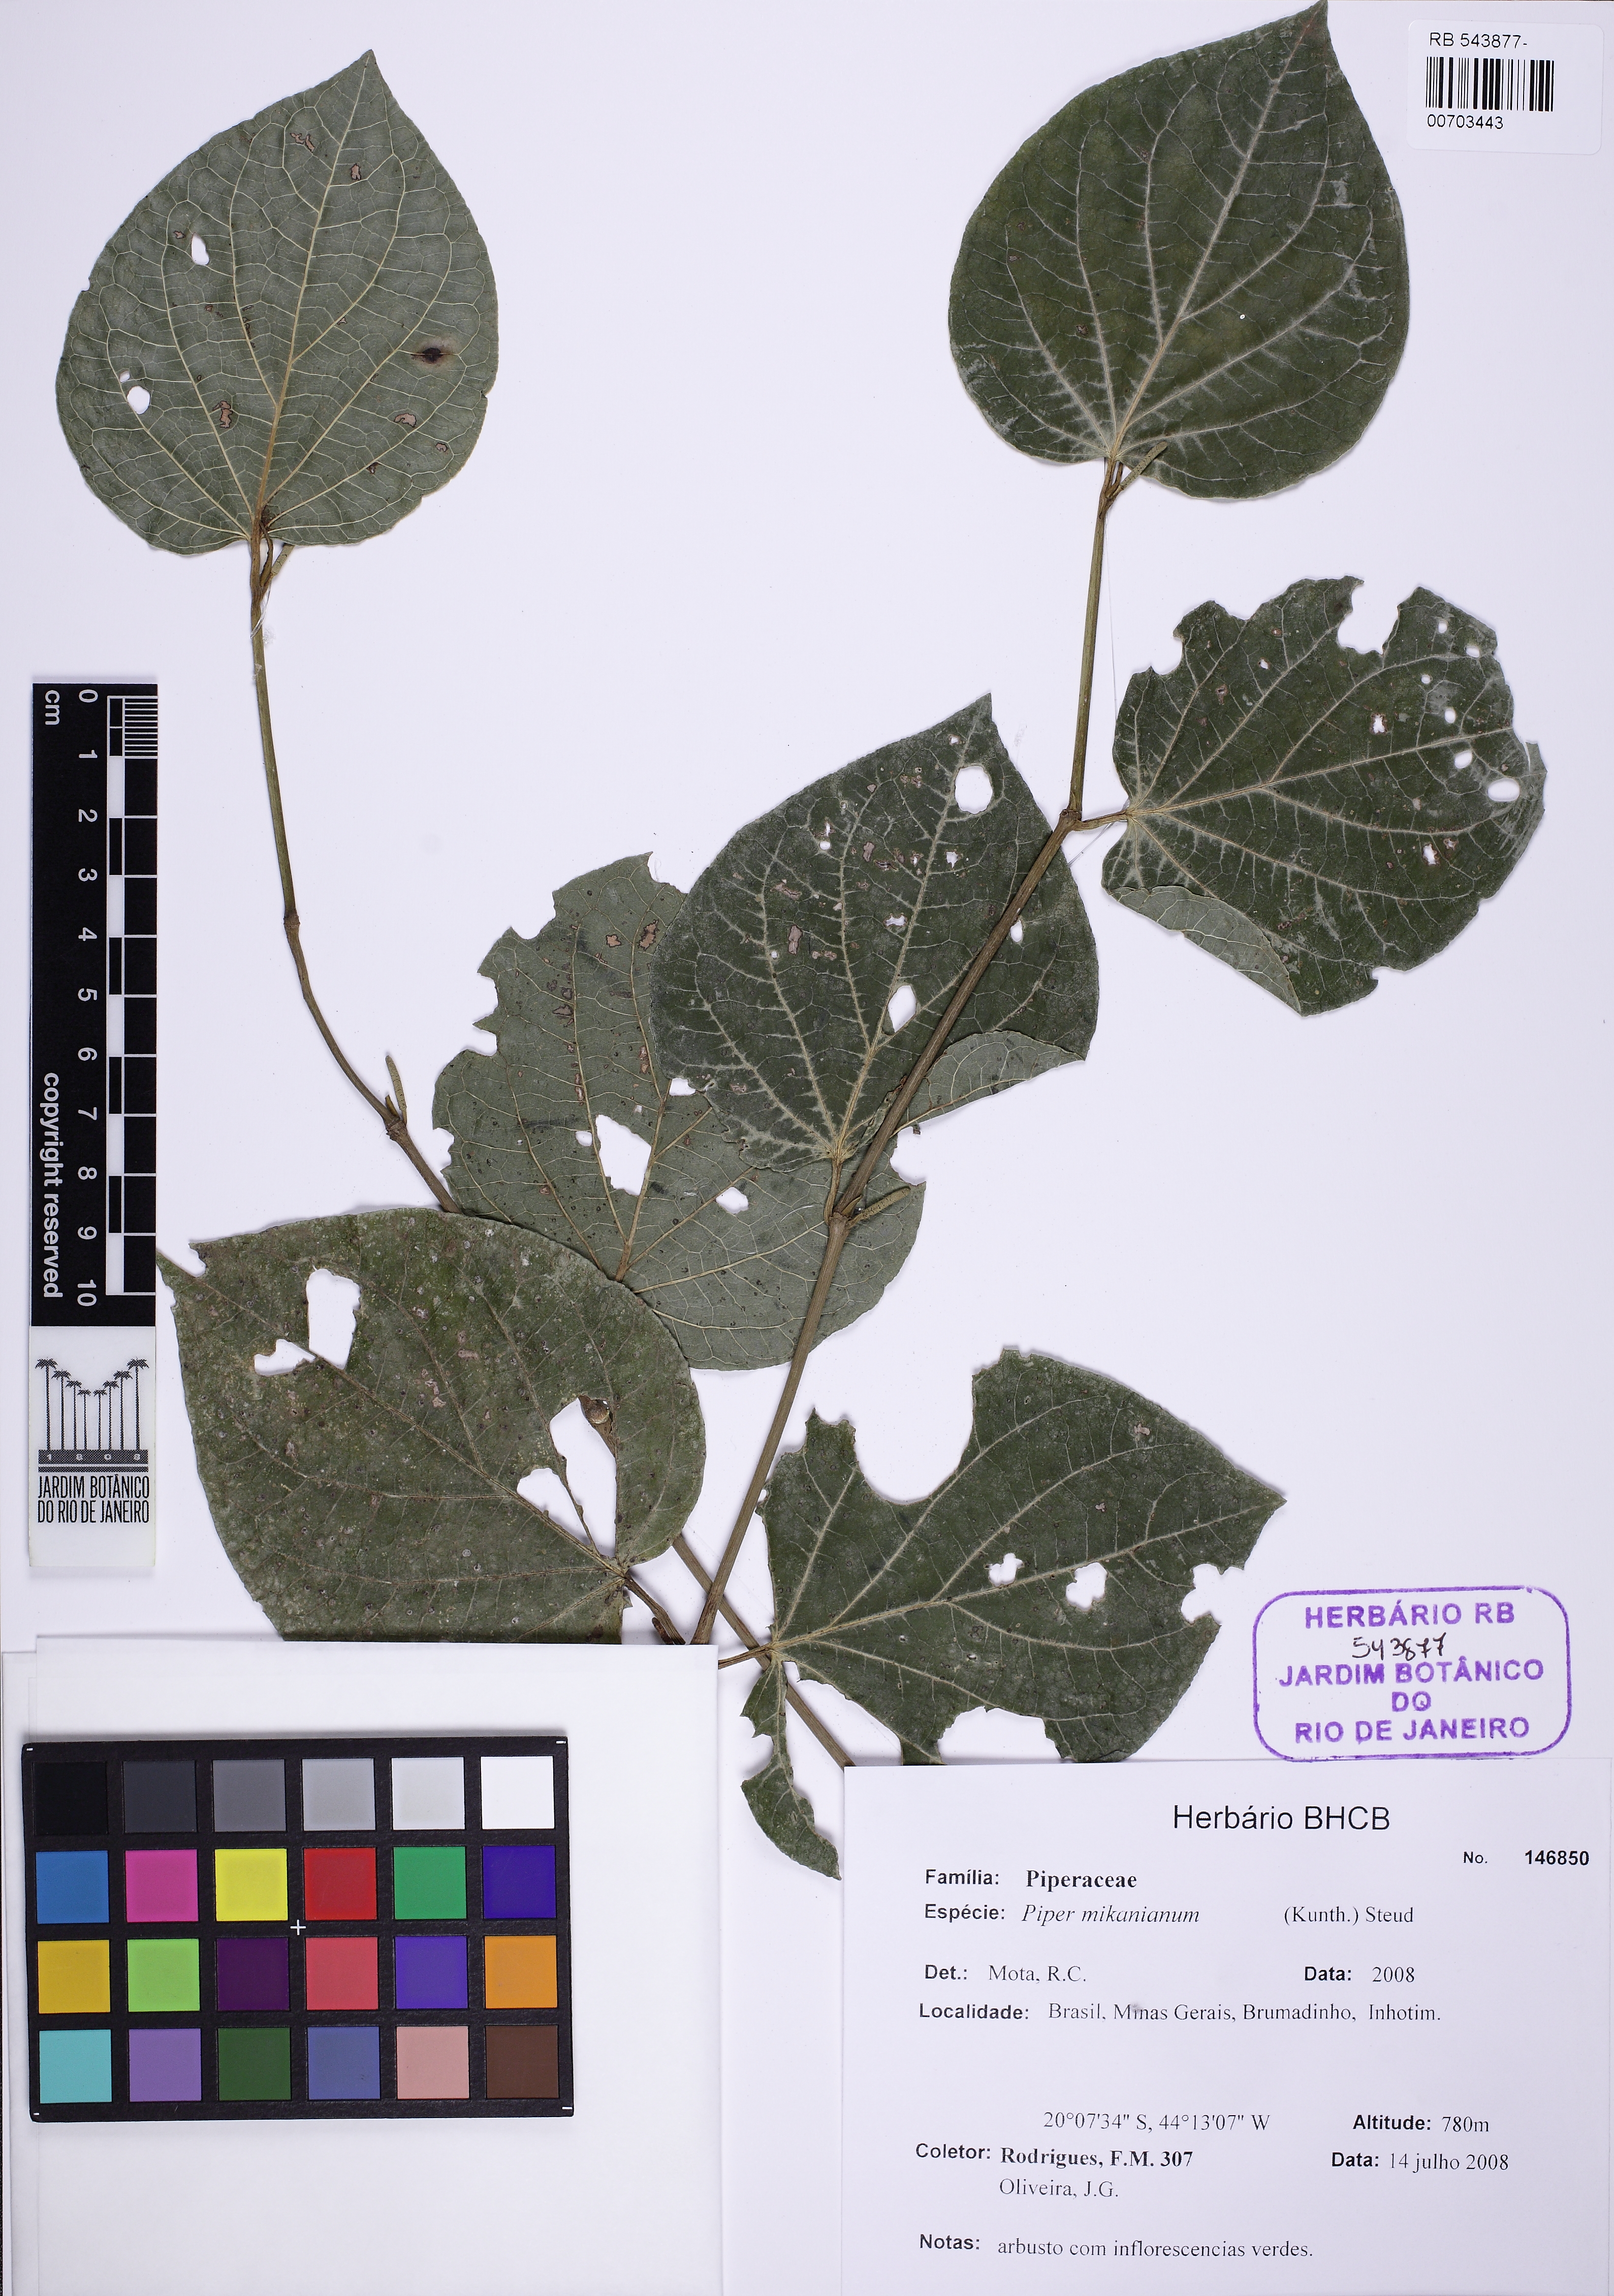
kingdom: Plantae
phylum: Tracheophyta
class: Magnoliopsida
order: Piperales
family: Piperaceae
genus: Piper
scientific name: Piper mikanianum
